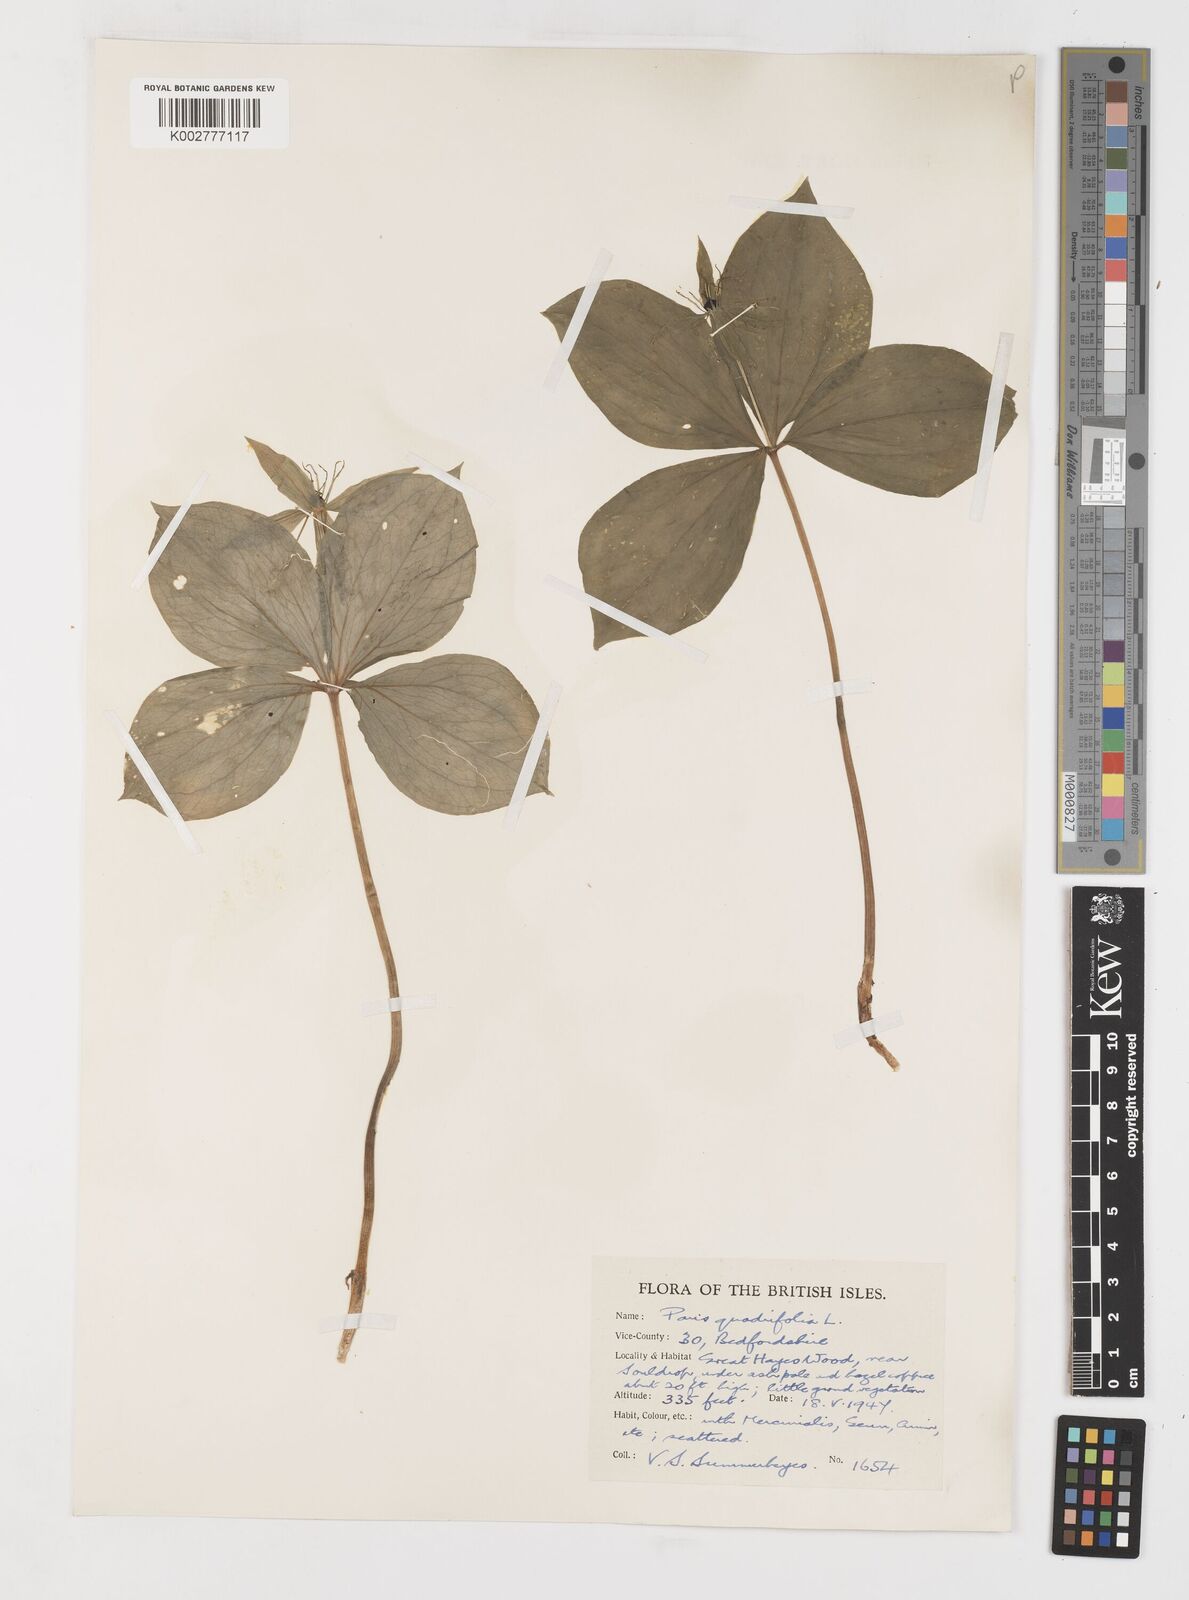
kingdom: Plantae
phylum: Tracheophyta
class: Liliopsida
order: Liliales
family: Melanthiaceae
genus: Paris
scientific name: Paris quadrifolia
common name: Herb-paris
